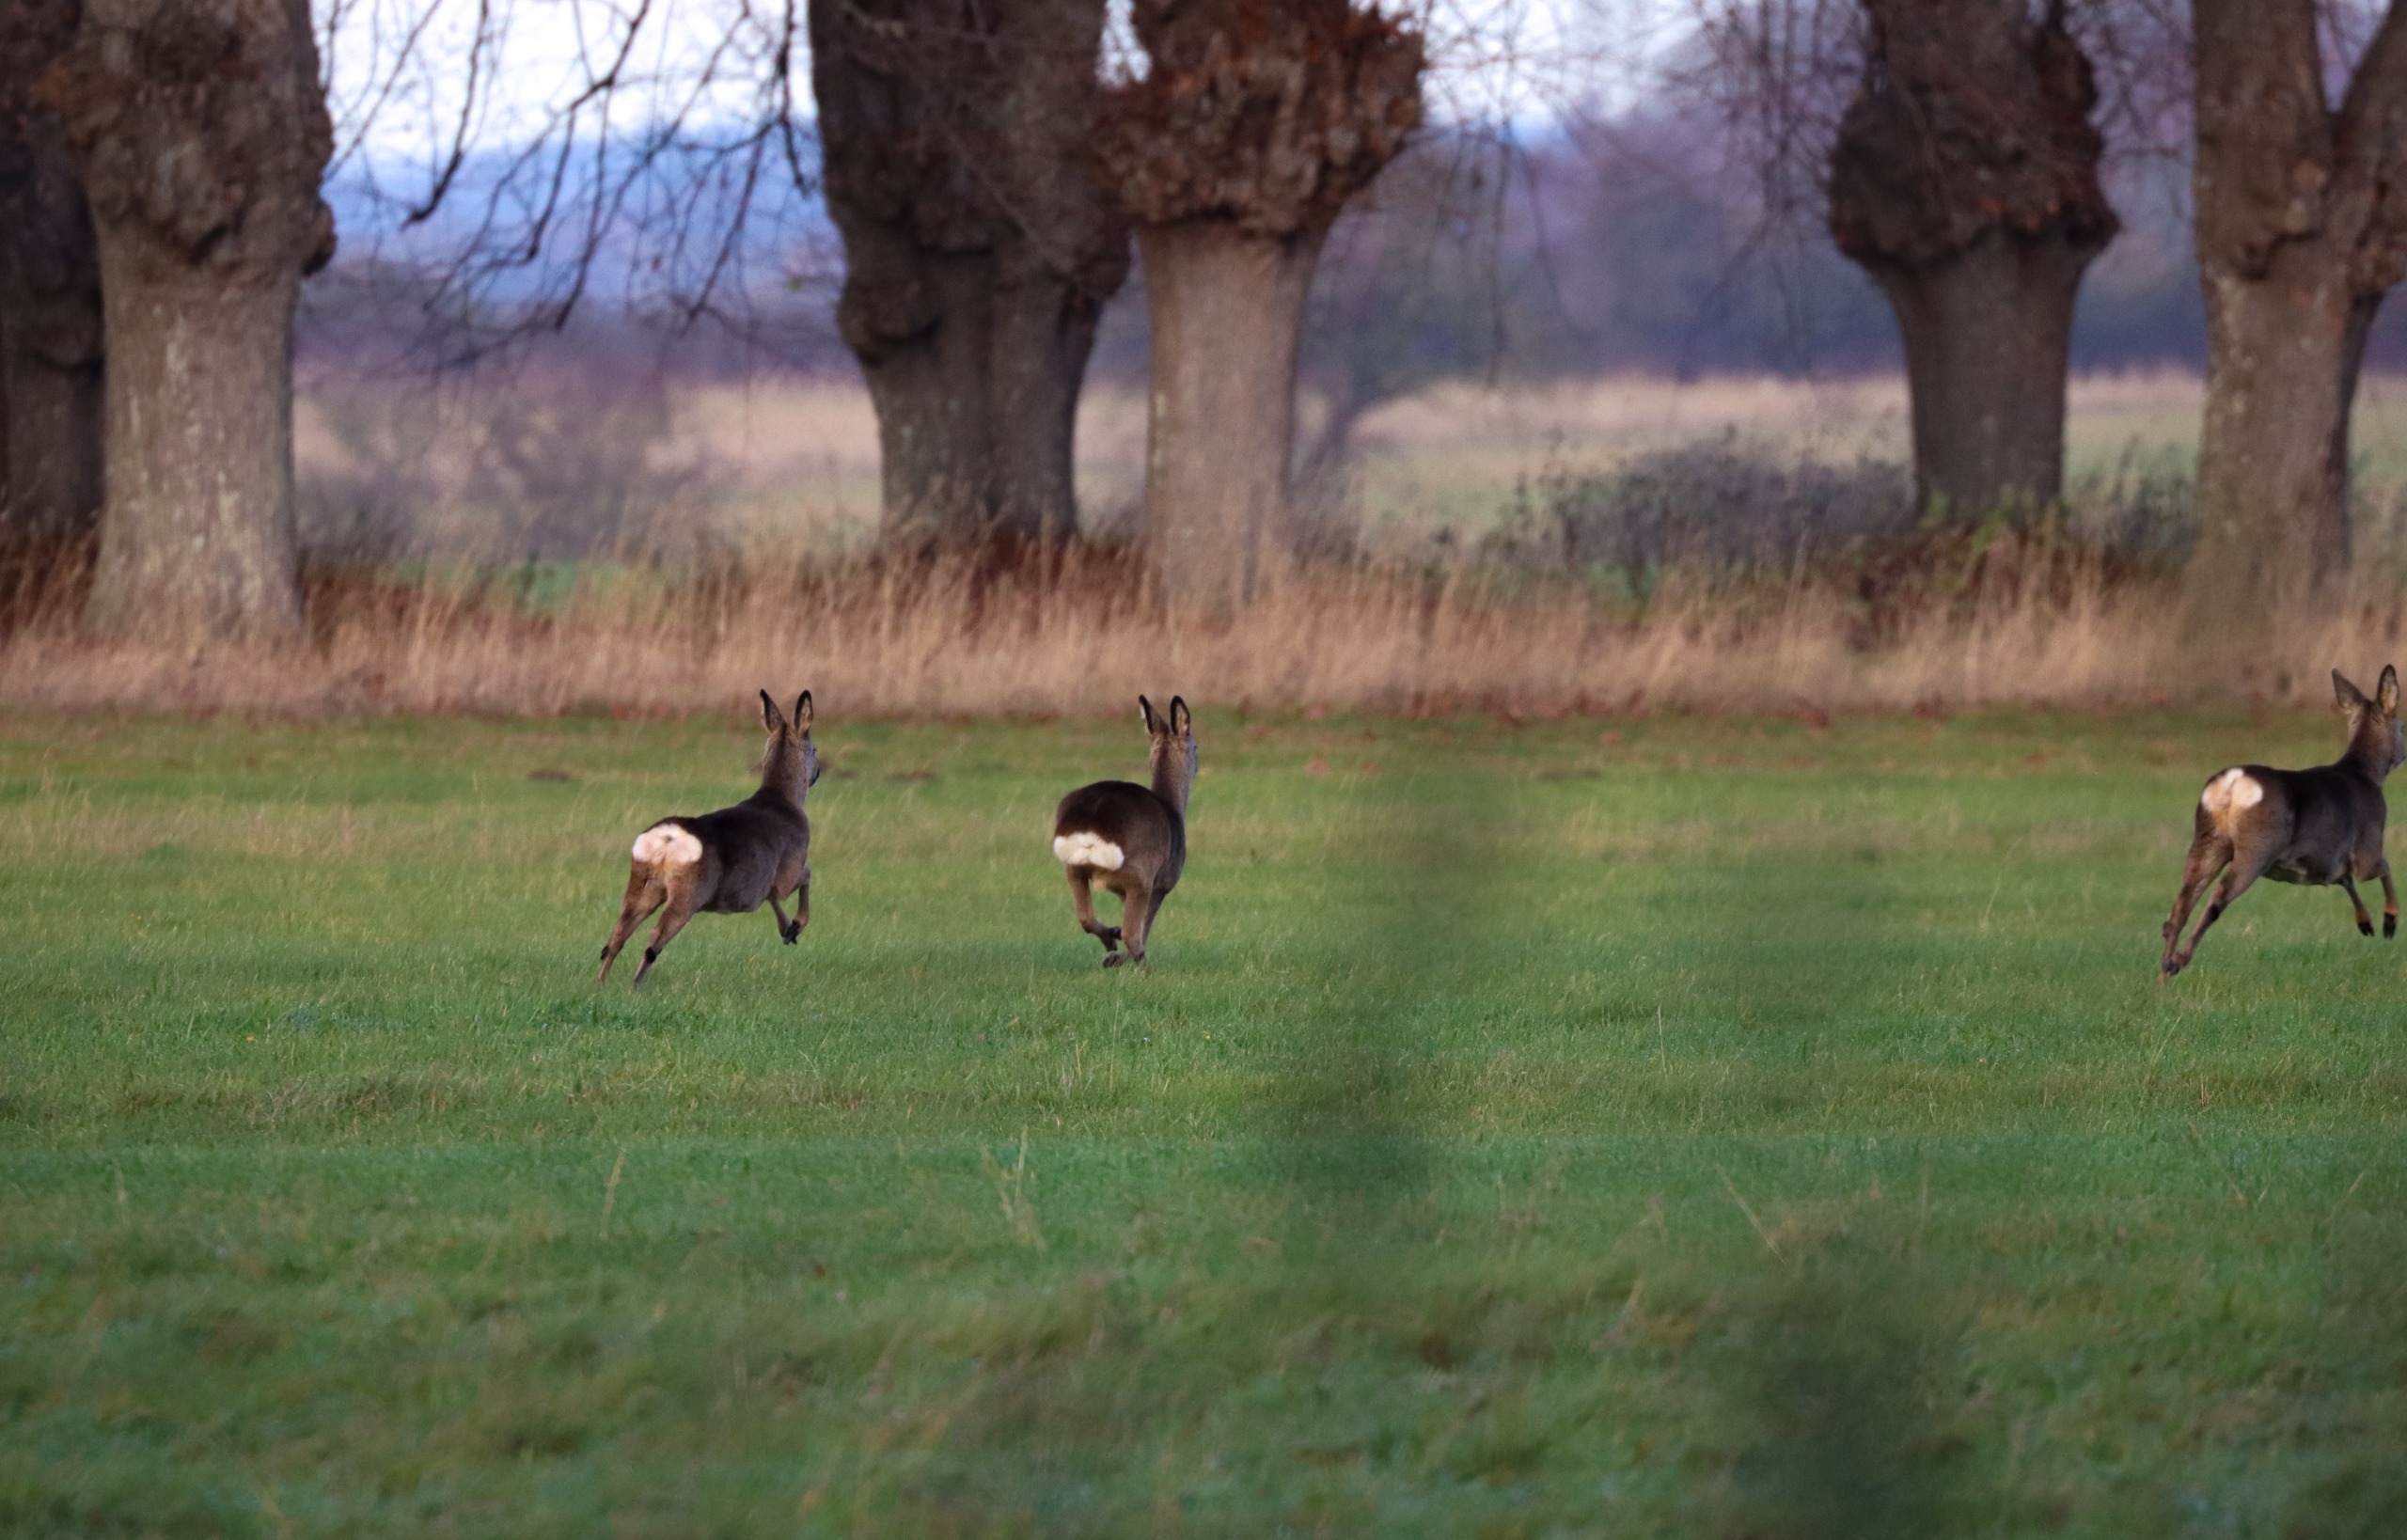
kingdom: Animalia
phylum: Chordata
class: Mammalia
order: Artiodactyla
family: Cervidae
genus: Capreolus
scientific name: Capreolus capreolus
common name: Rådyr
